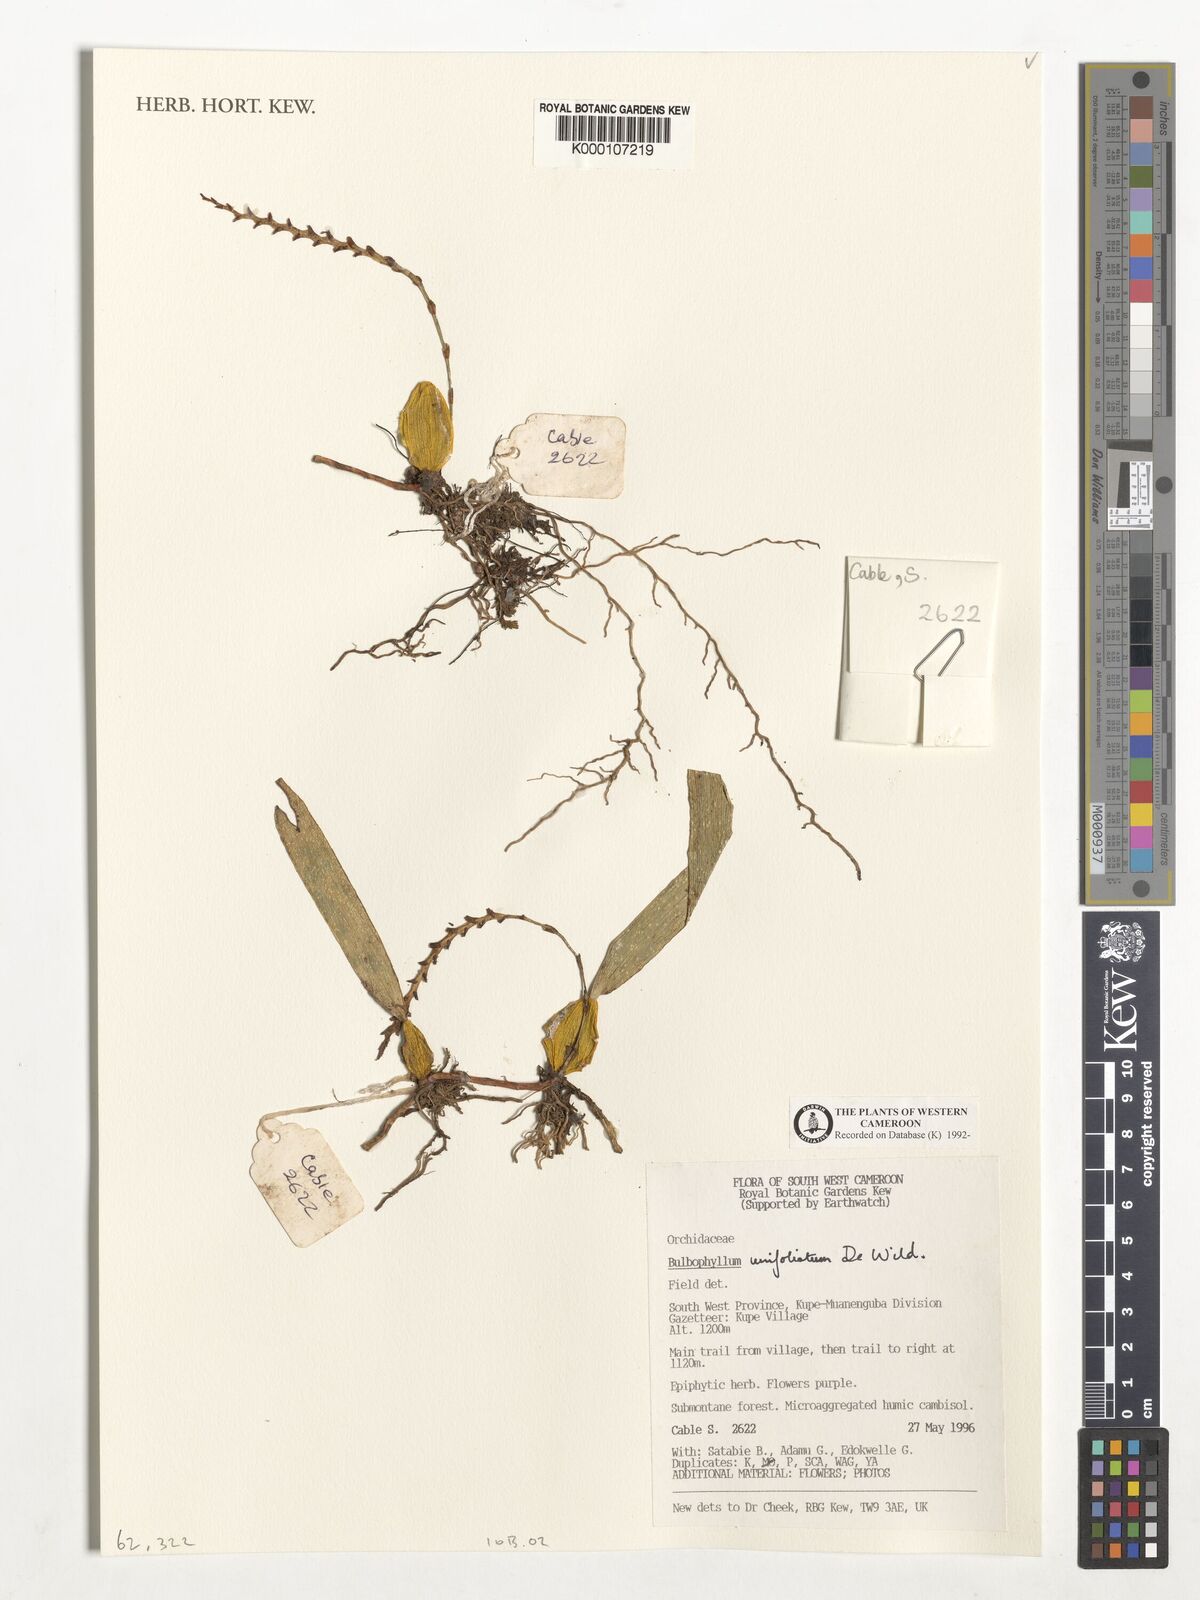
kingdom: Plantae
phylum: Tracheophyta
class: Liliopsida
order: Asparagales
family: Orchidaceae
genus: Bulbophyllum
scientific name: Bulbophyllum unifoliatum
